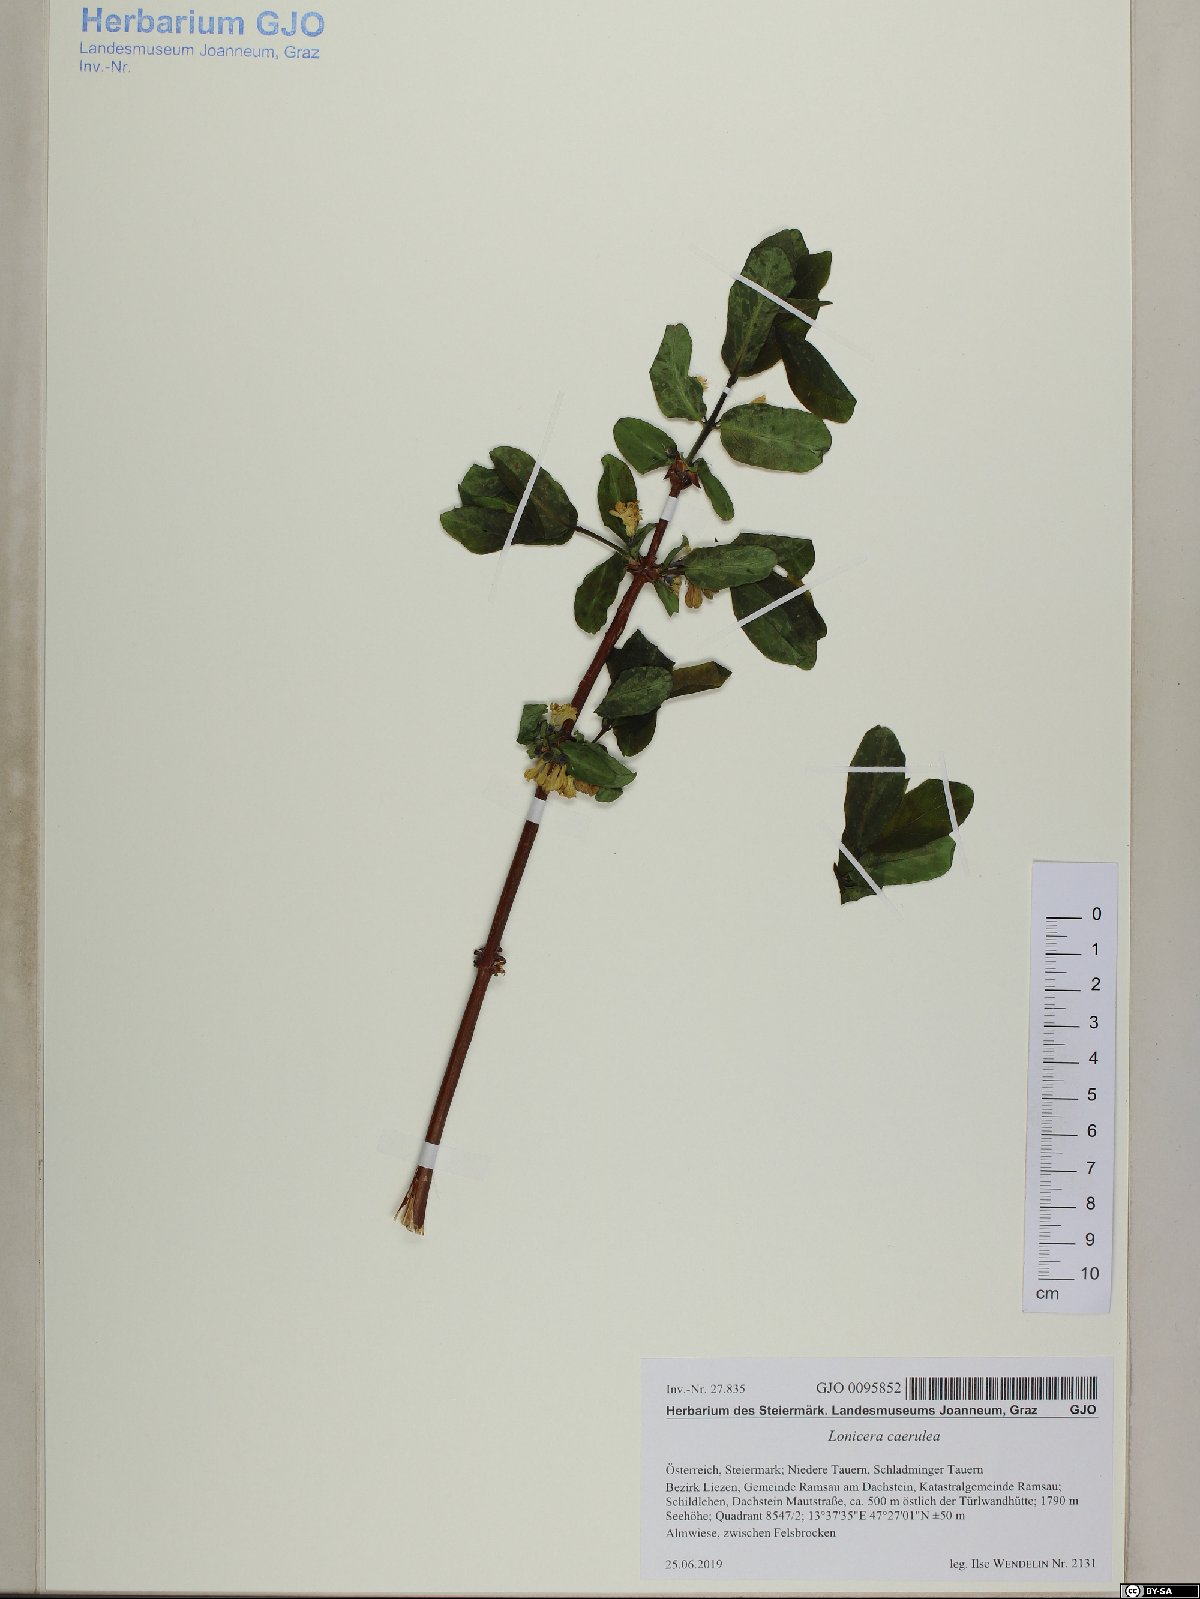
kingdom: Plantae
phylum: Tracheophyta
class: Magnoliopsida
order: Dipsacales
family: Caprifoliaceae
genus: Lonicera
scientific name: Lonicera caerulea
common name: Blue honeysuckle
